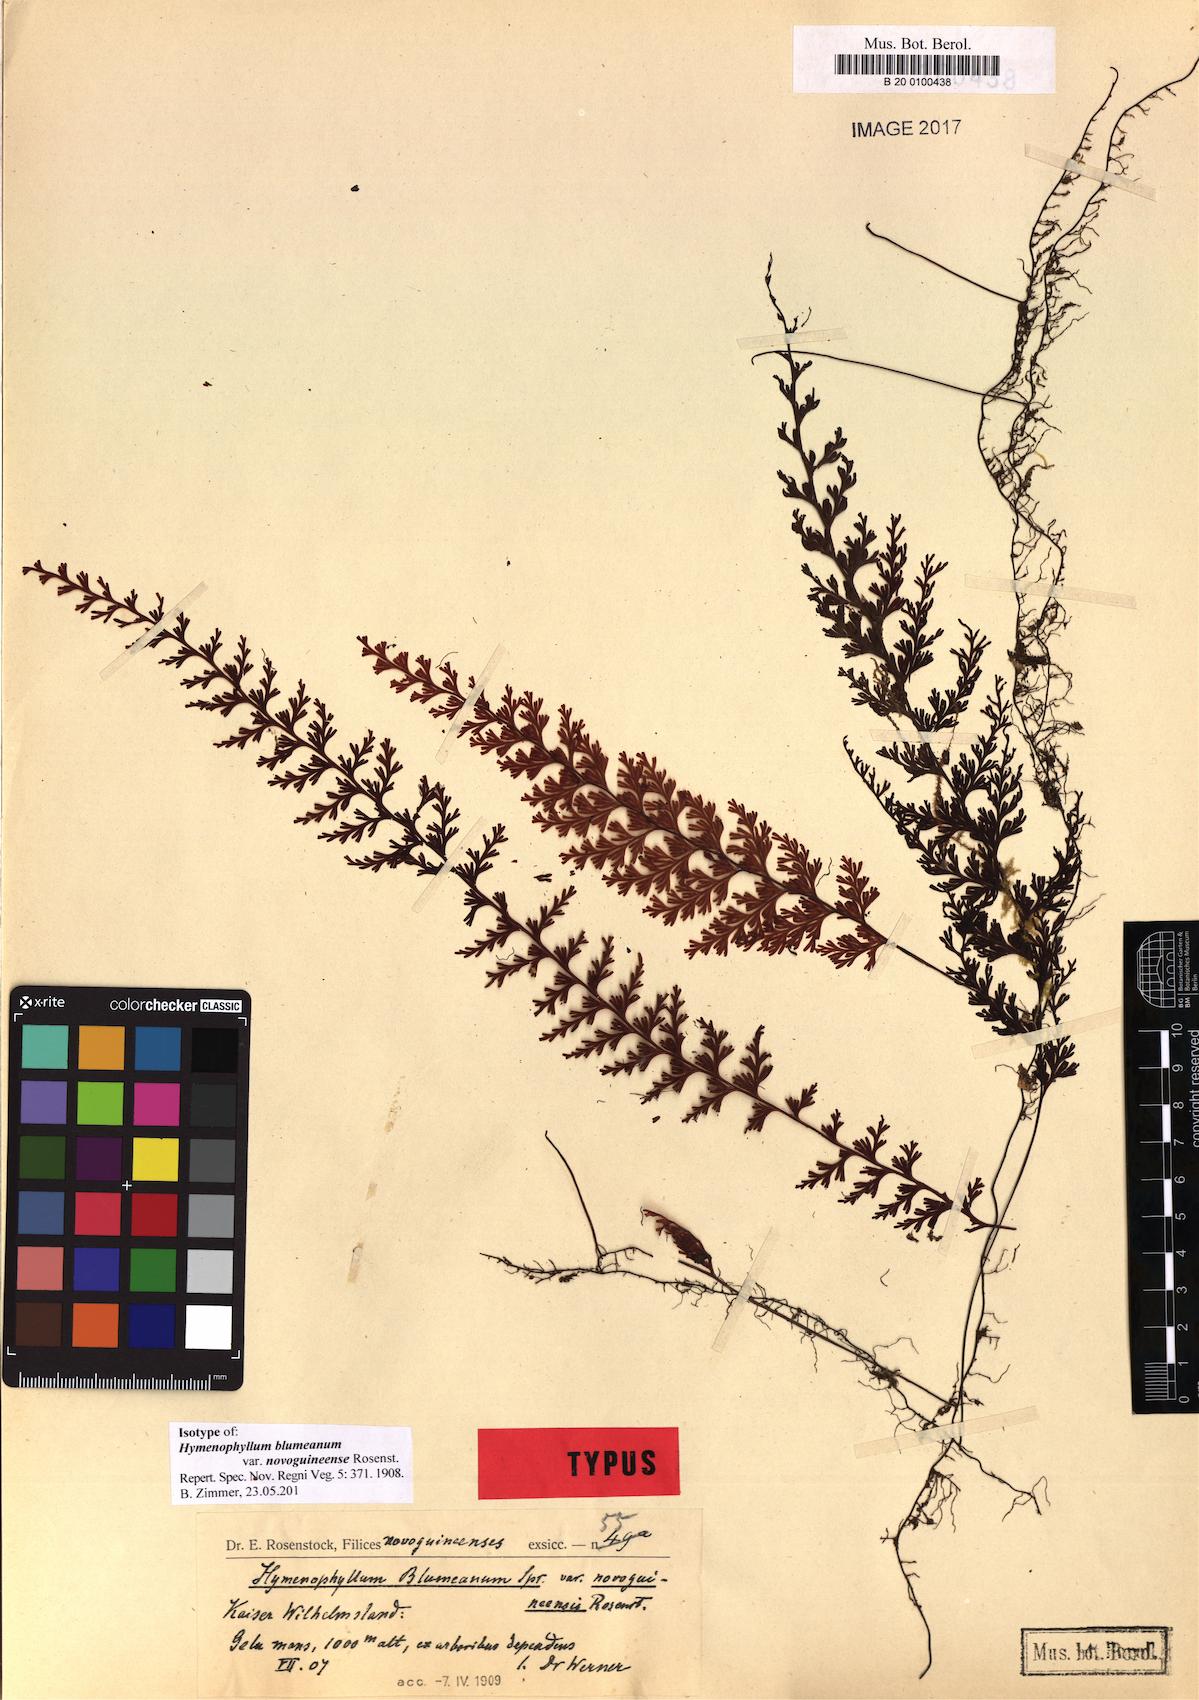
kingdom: Plantae
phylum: Tracheophyta
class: Polypodiopsida
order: Hymenophyllales
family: Hymenophyllaceae
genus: Hymenophyllum
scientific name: Hymenophyllum novoguineense
